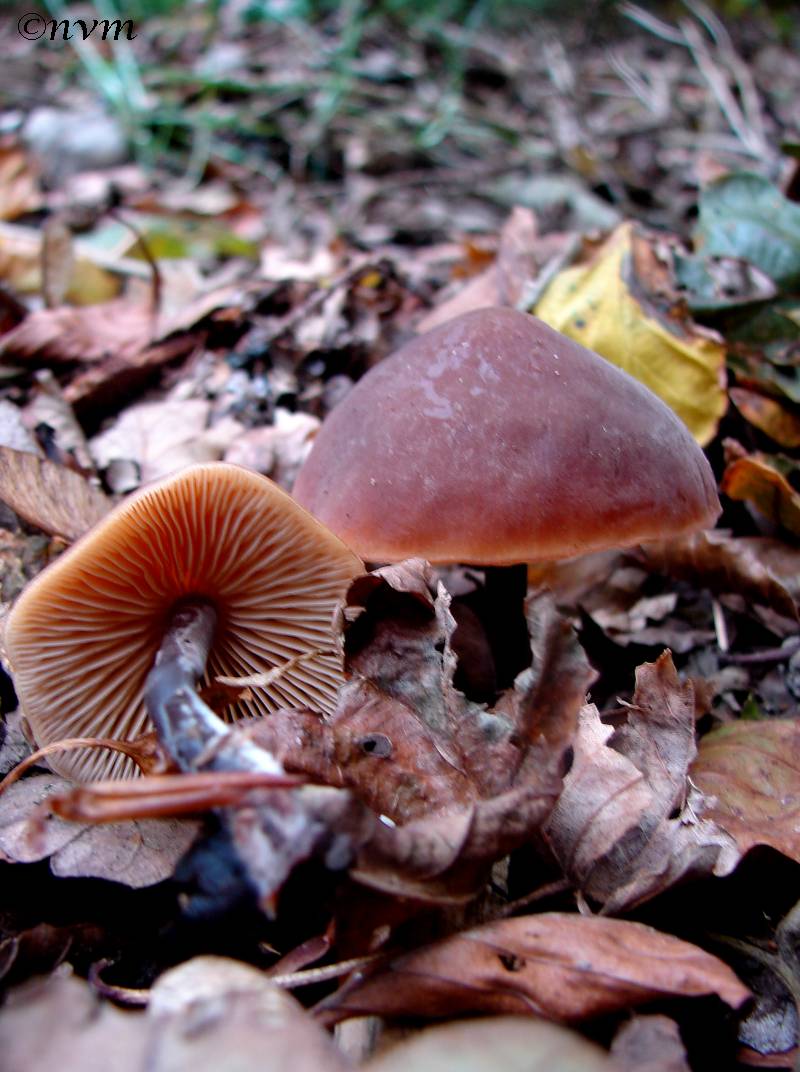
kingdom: Fungi
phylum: Basidiomycota
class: Agaricomycetes
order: Agaricales
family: Macrocystidiaceae
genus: Macrocystidia
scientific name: Macrocystidia cucumis
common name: agurkehat
